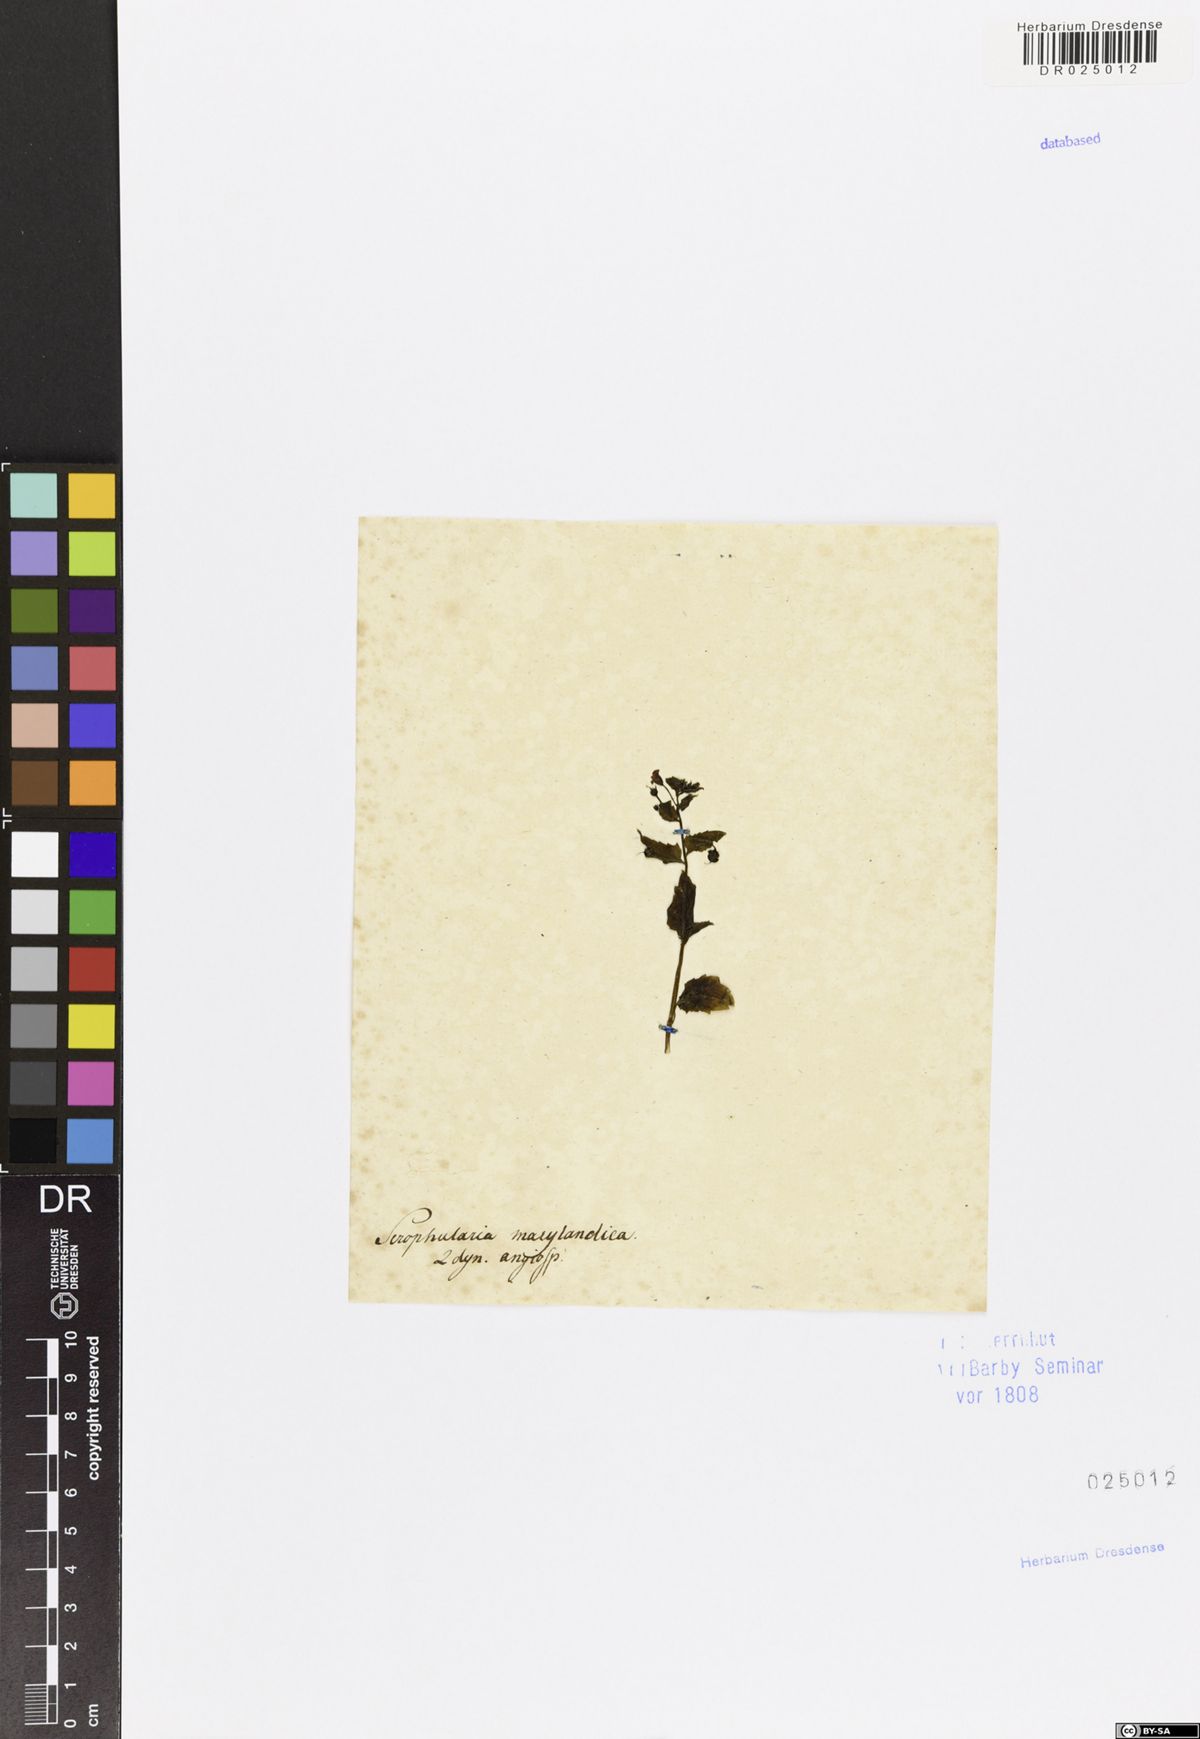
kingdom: Plantae
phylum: Tracheophyta
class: Magnoliopsida
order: Lamiales
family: Scrophulariaceae
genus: Scrophularia
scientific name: Scrophularia marilandica
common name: Eastern figwort
